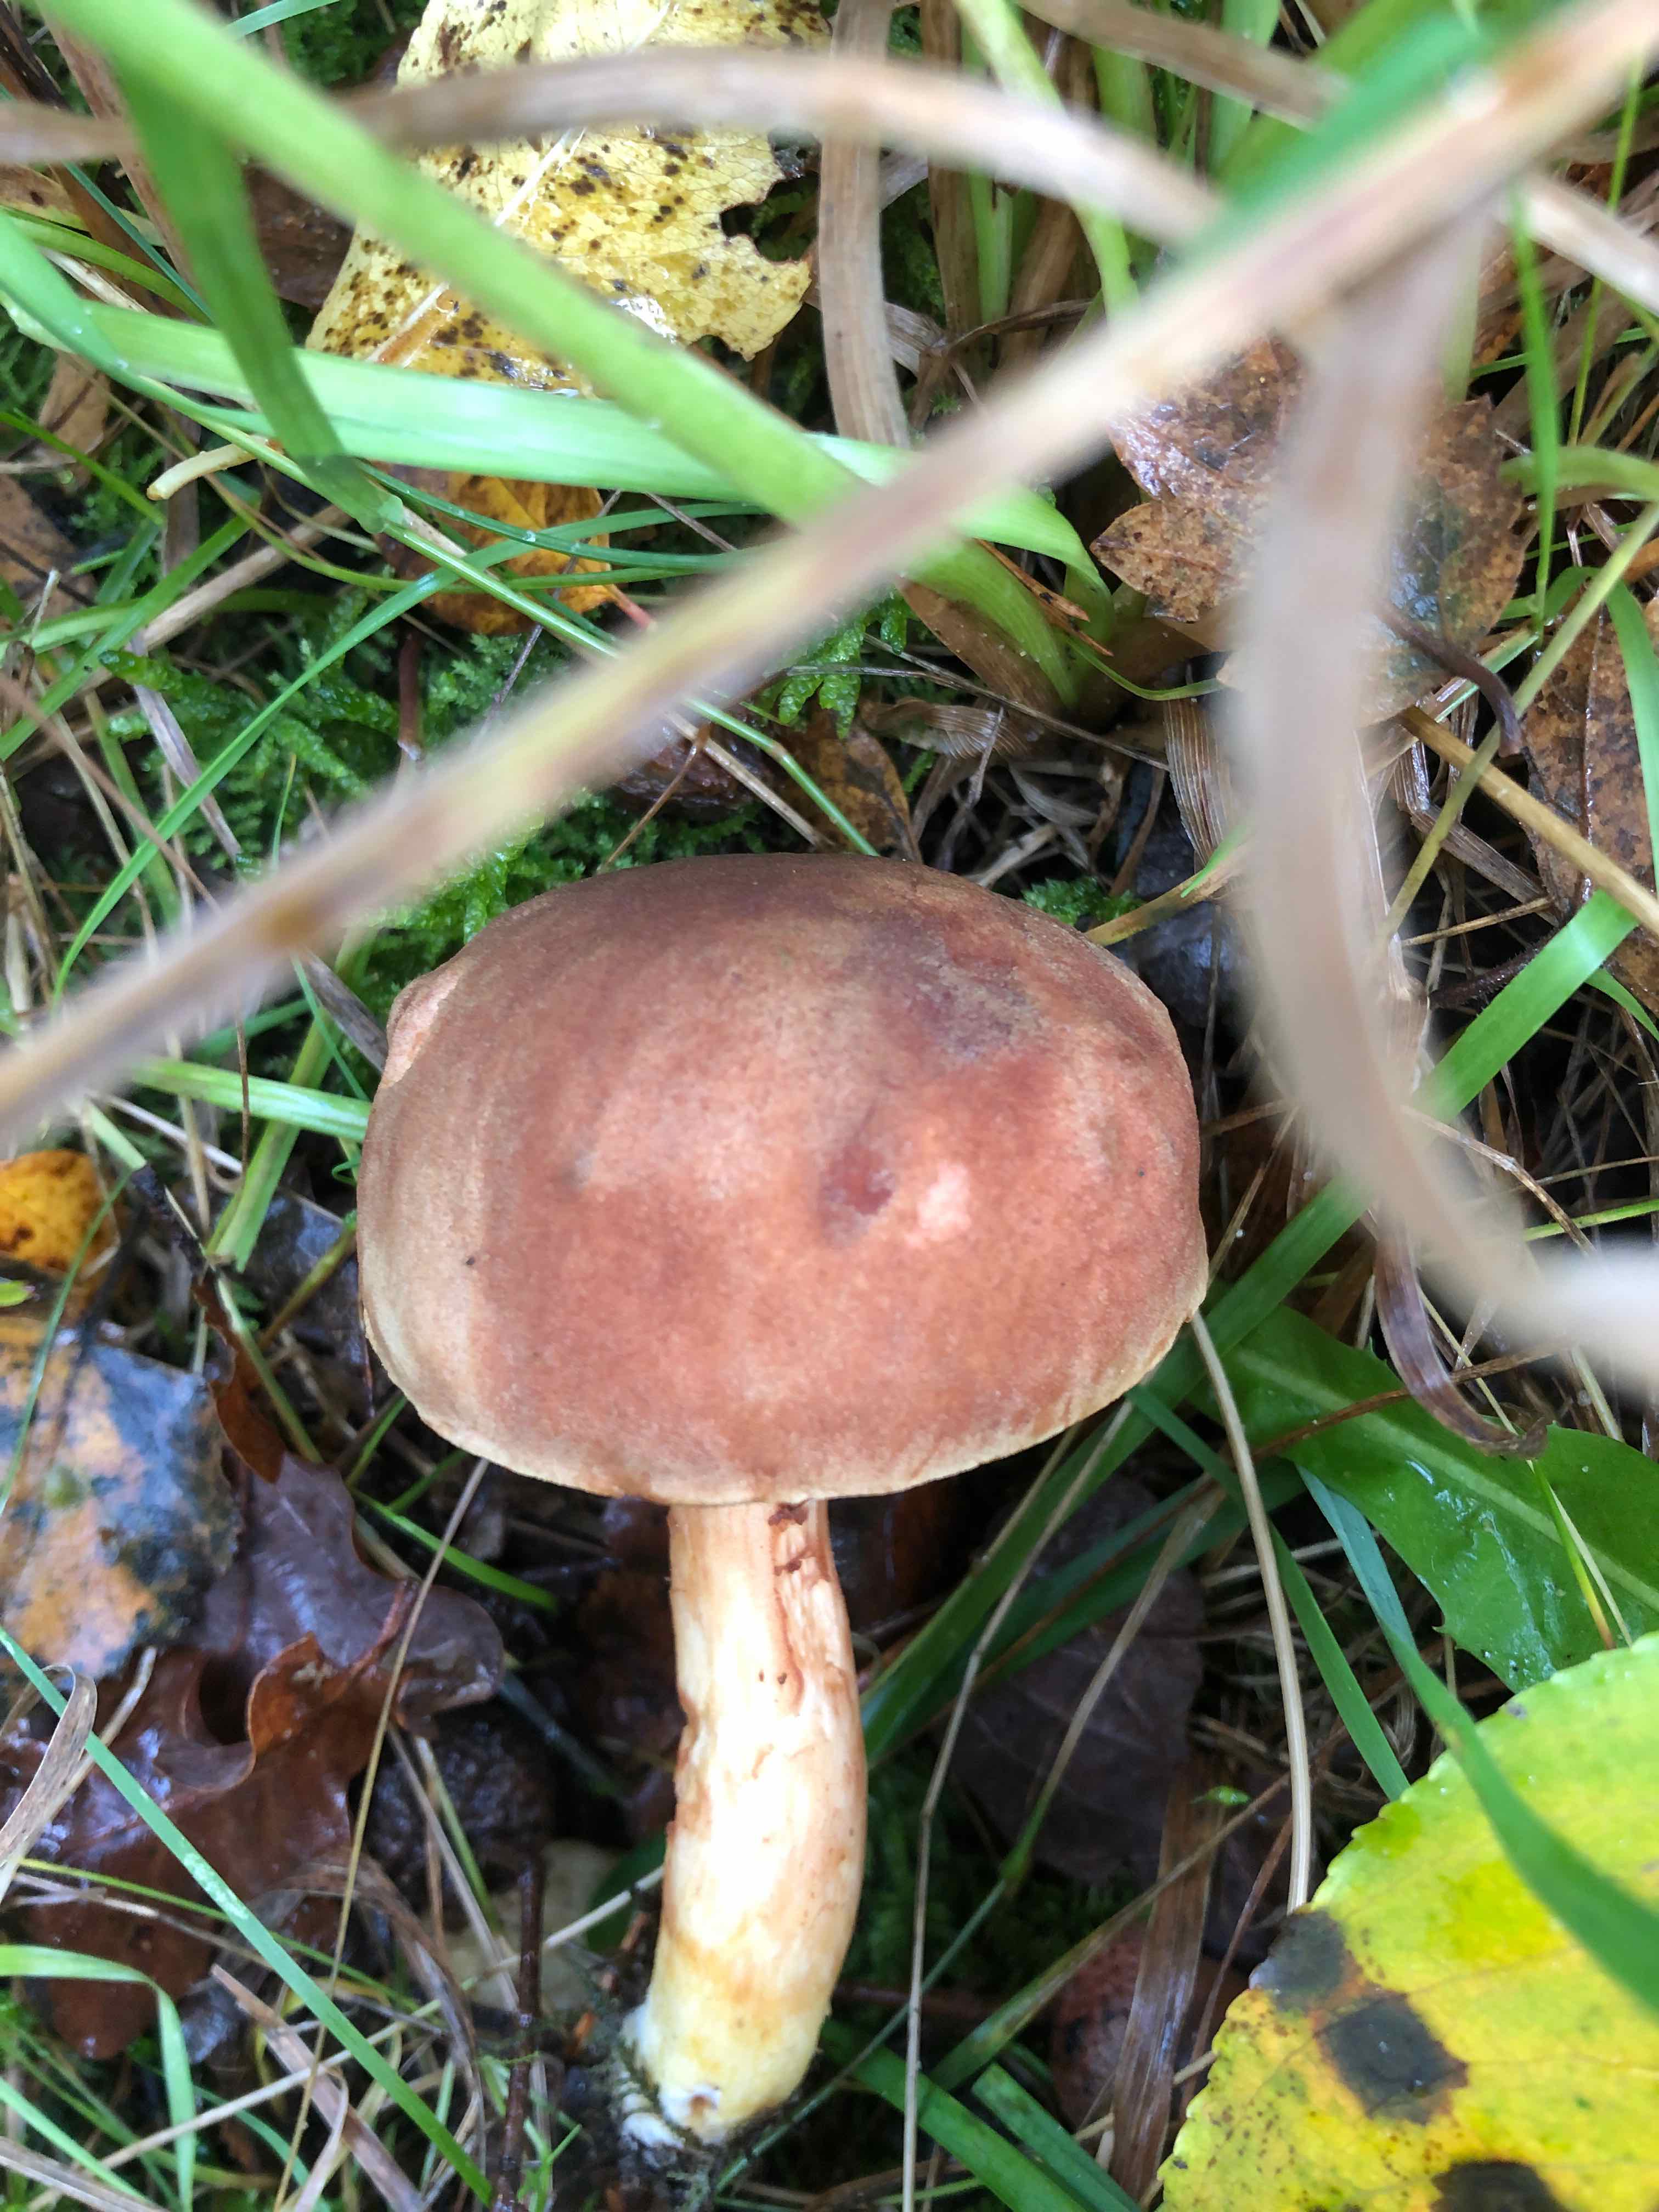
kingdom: Fungi
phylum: Basidiomycota
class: Agaricomycetes
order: Boletales
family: Boletaceae
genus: Xerocomus
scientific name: Xerocomus ferrugineus
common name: vaskeskinds-rørhat
